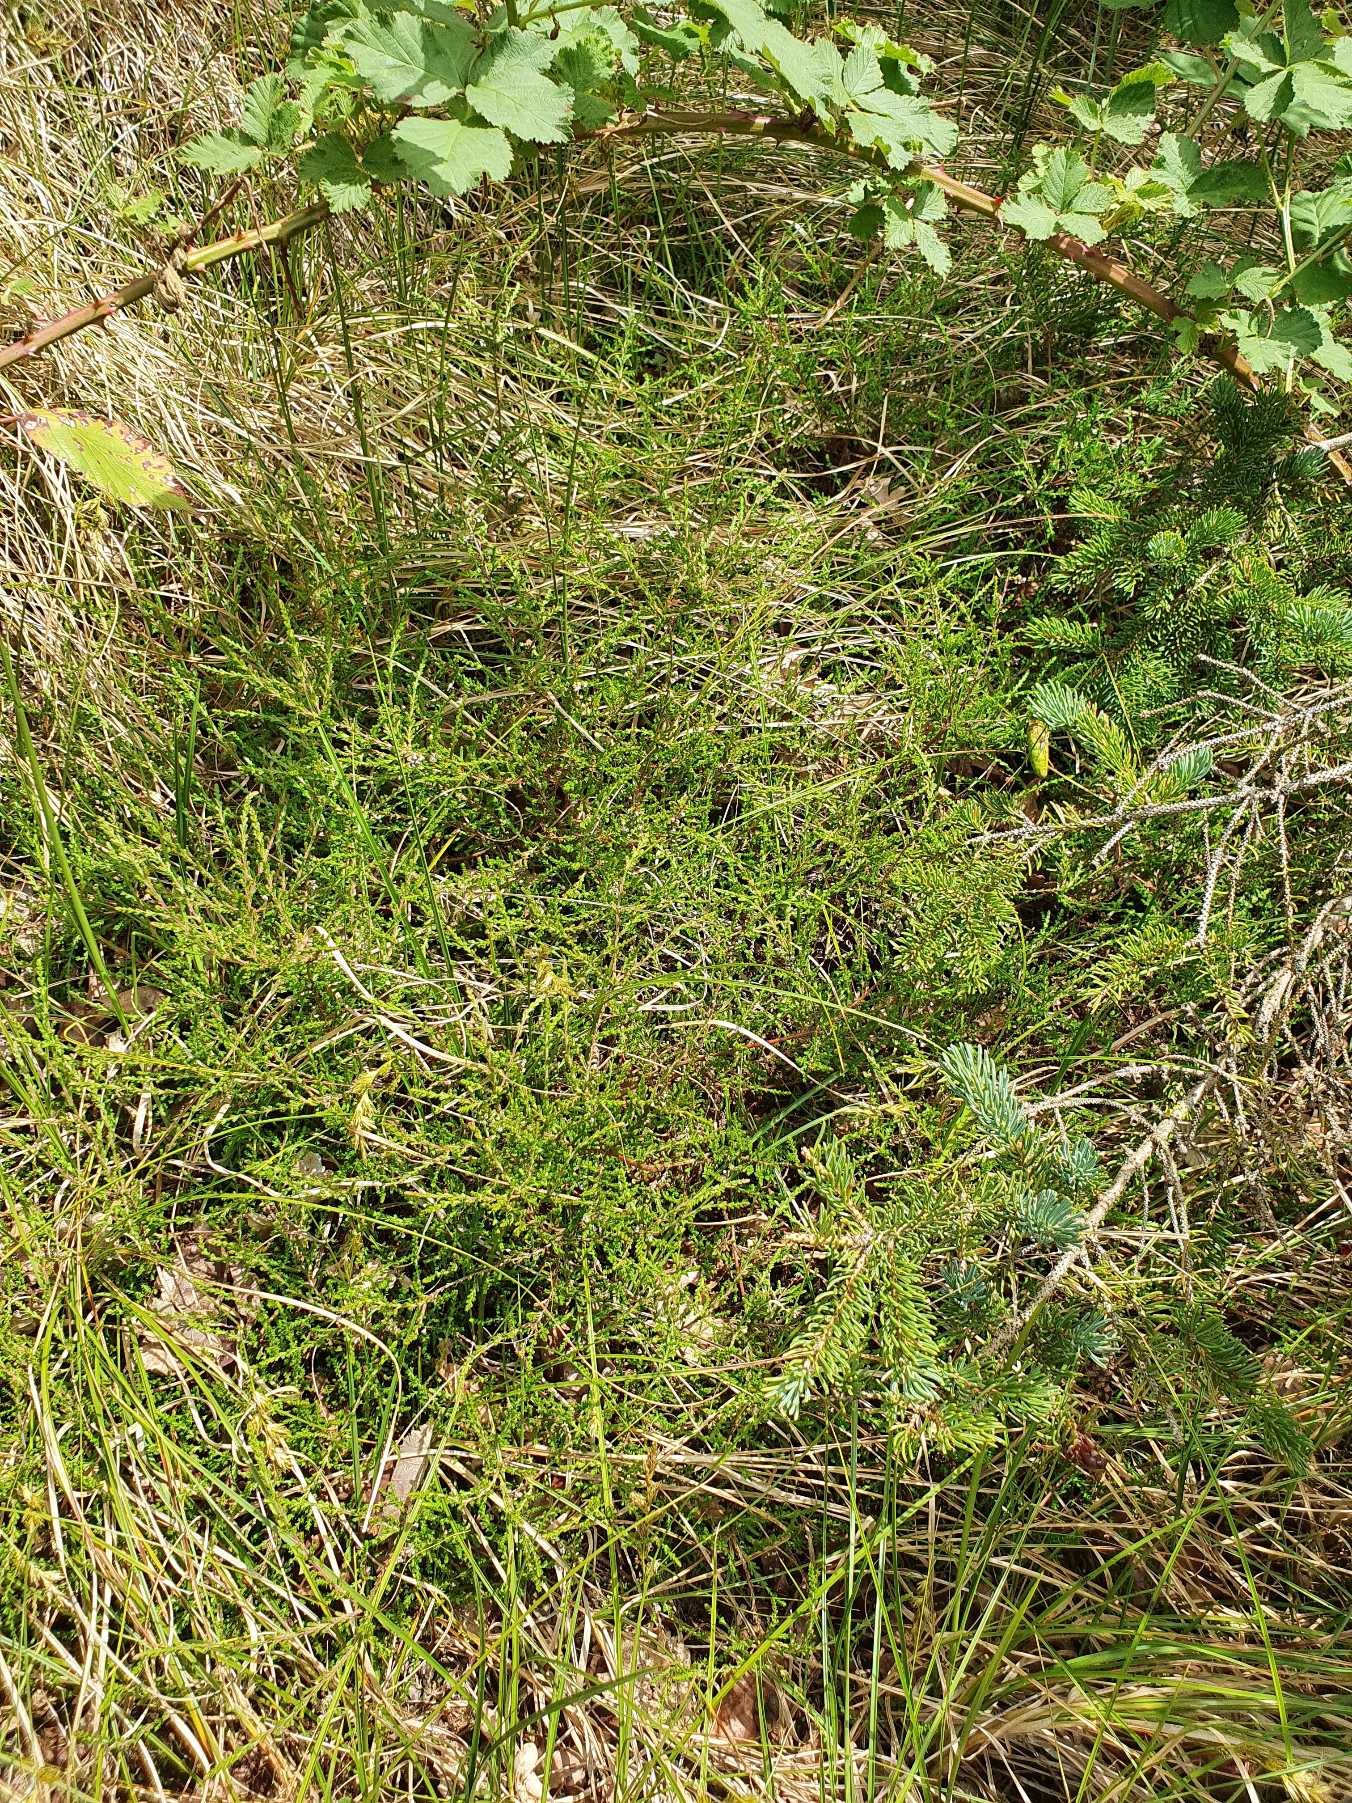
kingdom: Plantae
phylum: Tracheophyta
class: Magnoliopsida
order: Ericales
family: Ericaceae
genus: Calluna
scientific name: Calluna vulgaris
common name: Hedelyng
